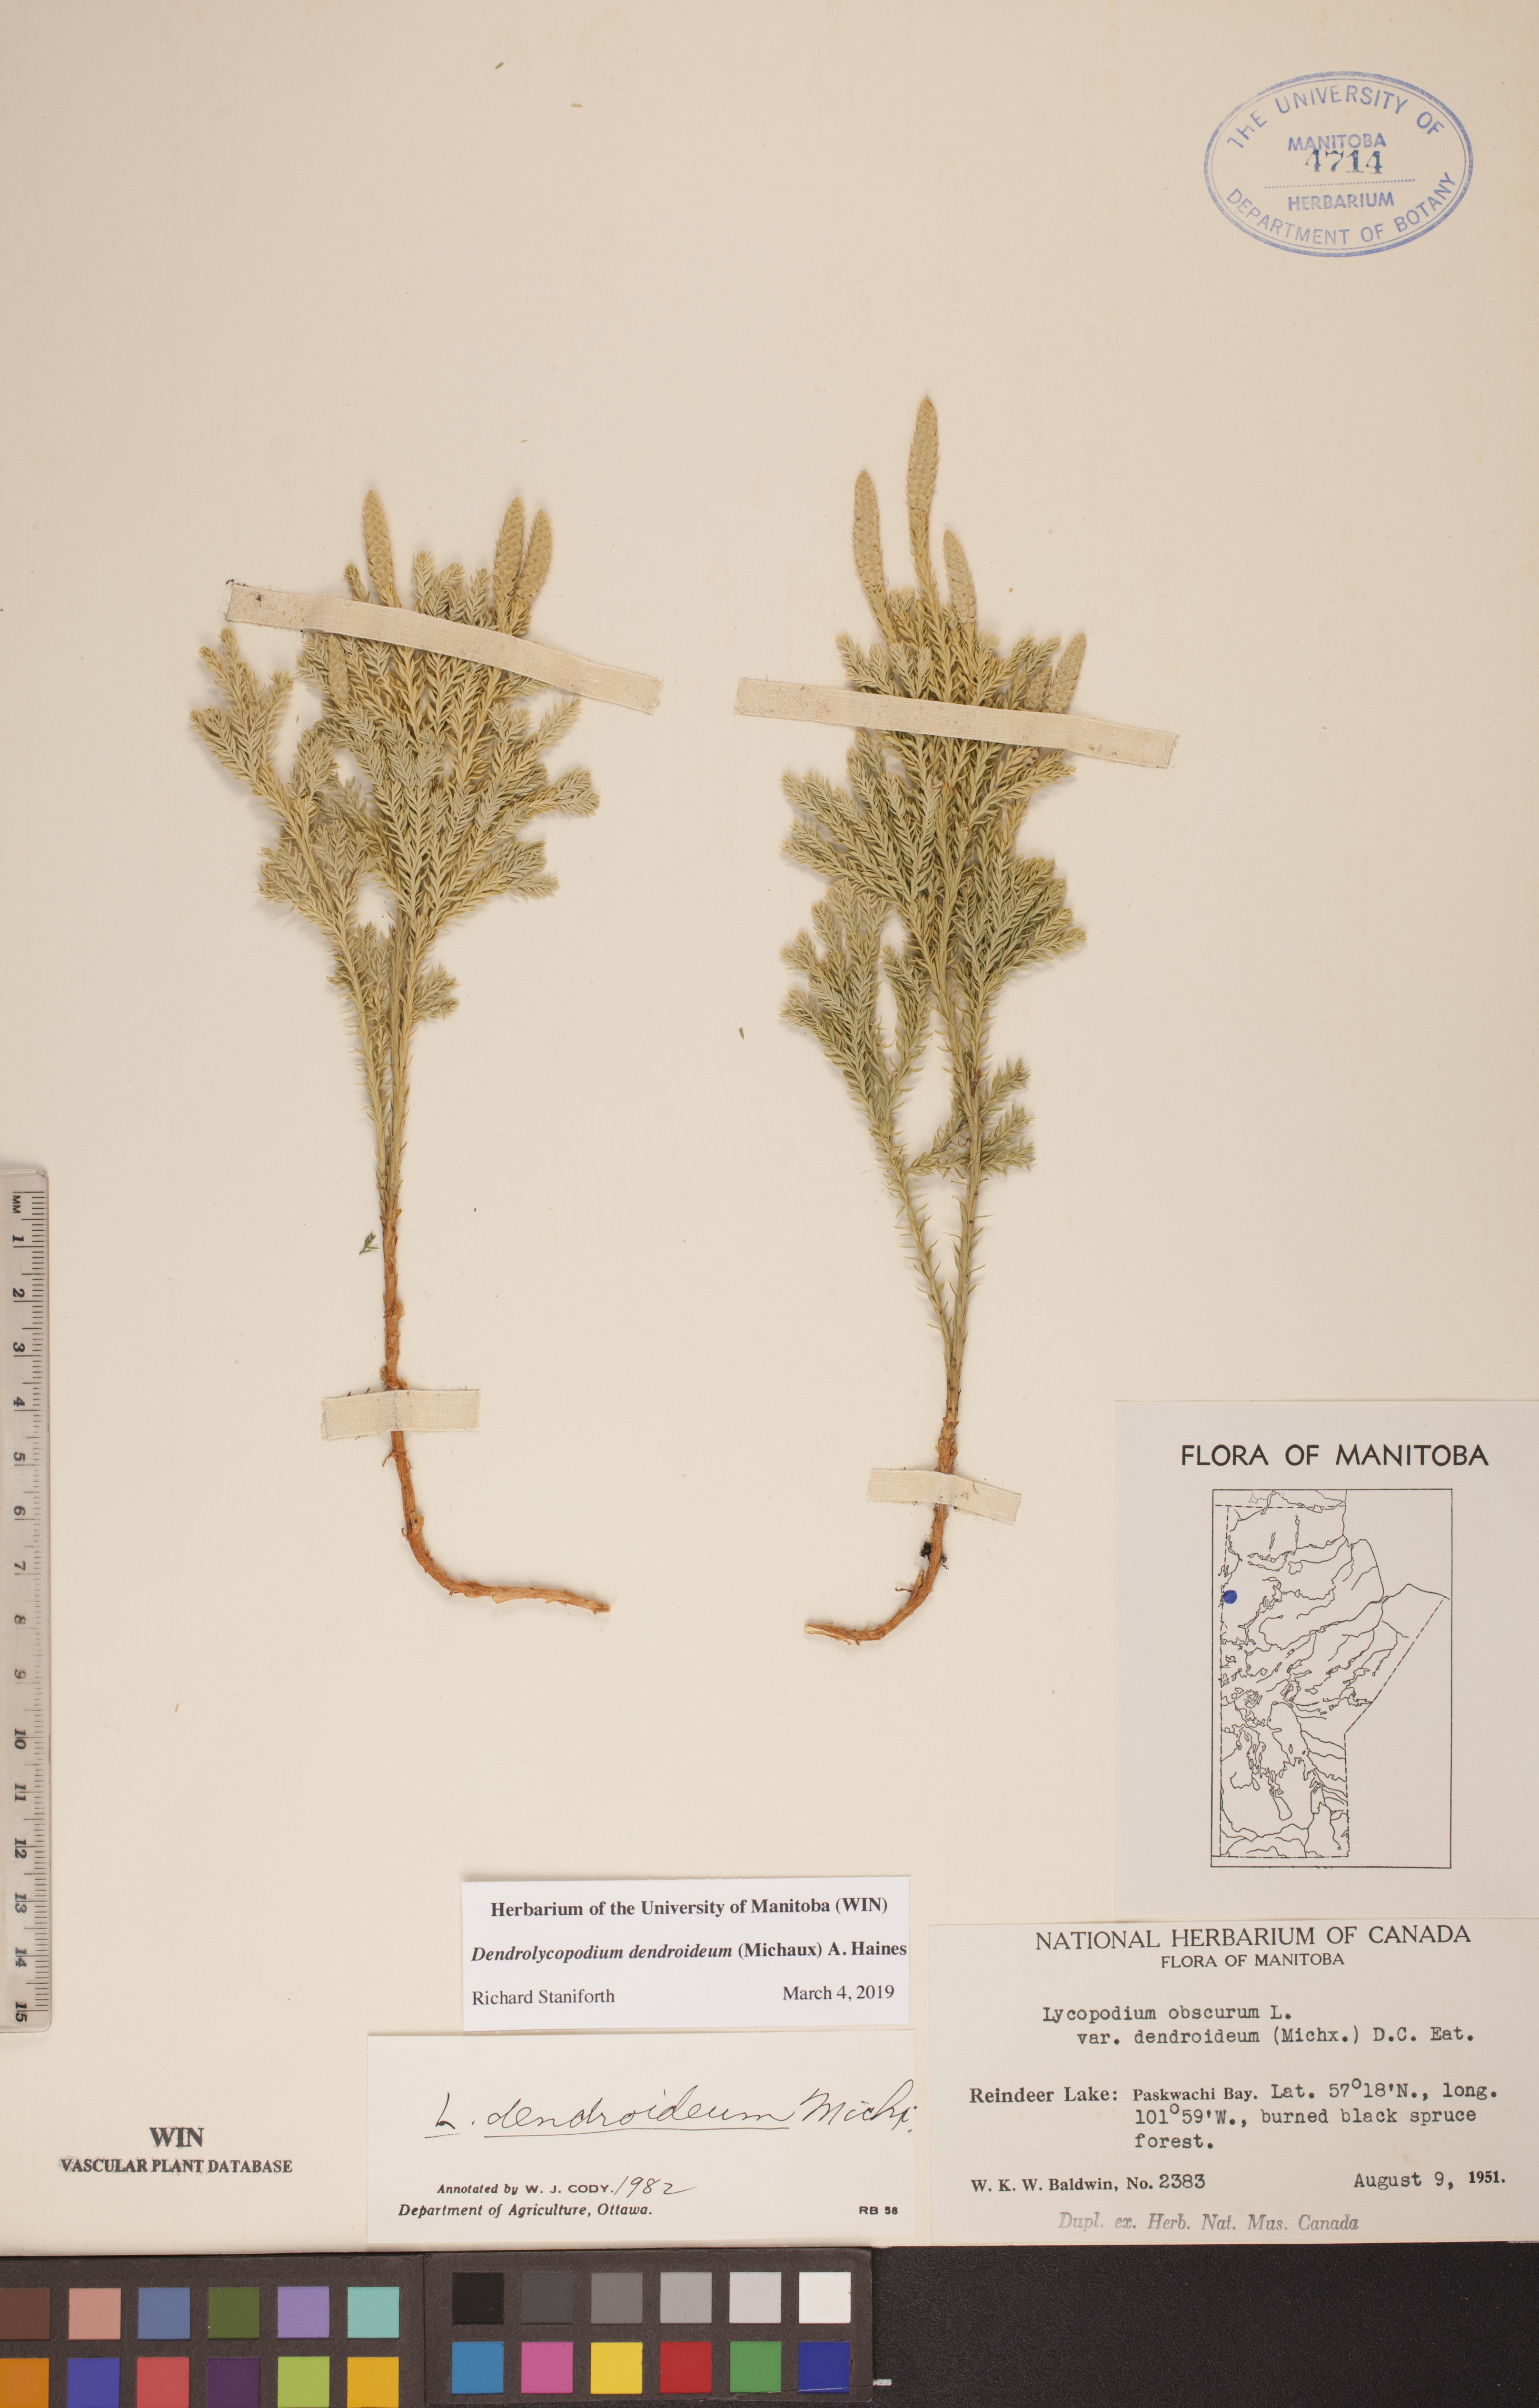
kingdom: Plantae
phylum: Tracheophyta
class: Lycopodiopsida
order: Lycopodiales
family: Lycopodiaceae
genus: Dendrolycopodium
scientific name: Dendrolycopodium dendroideum
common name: Northern tree-clubmoss
